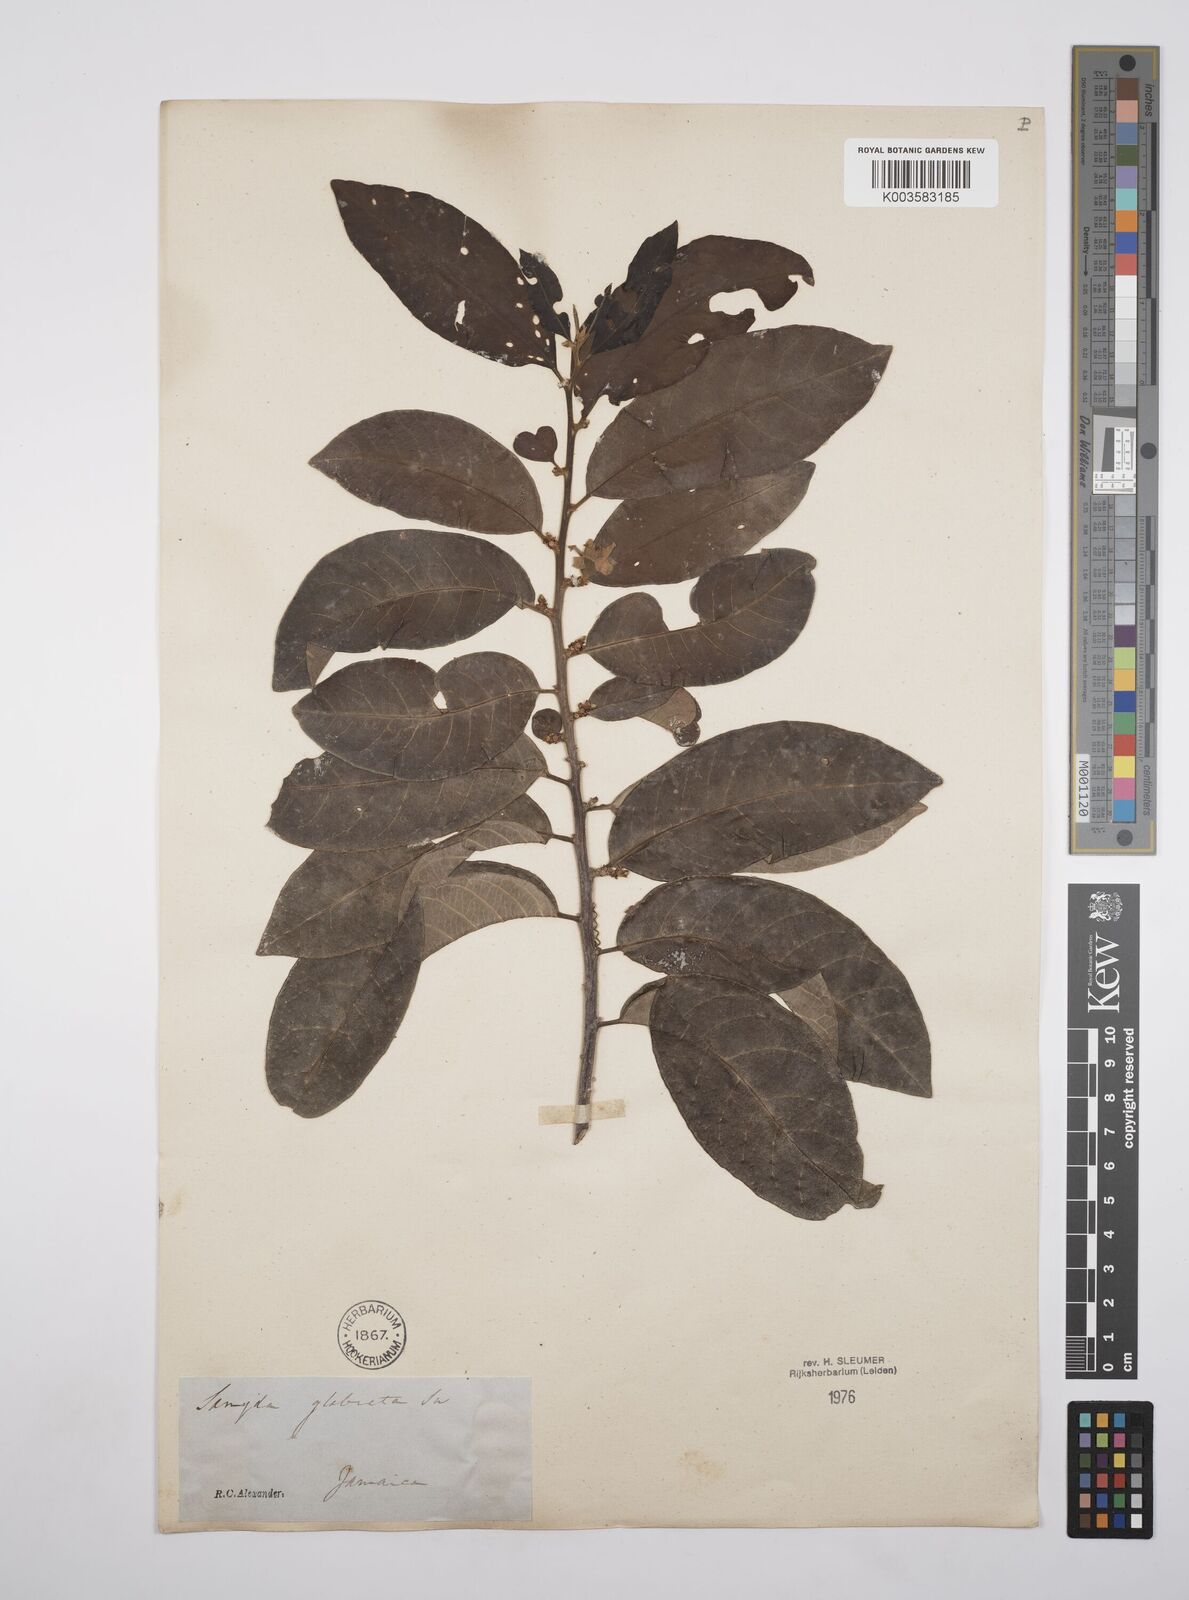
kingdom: Plantae
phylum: Tracheophyta
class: Magnoliopsida
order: Malpighiales
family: Salicaceae
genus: Casearia
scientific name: Casearia kigeri
